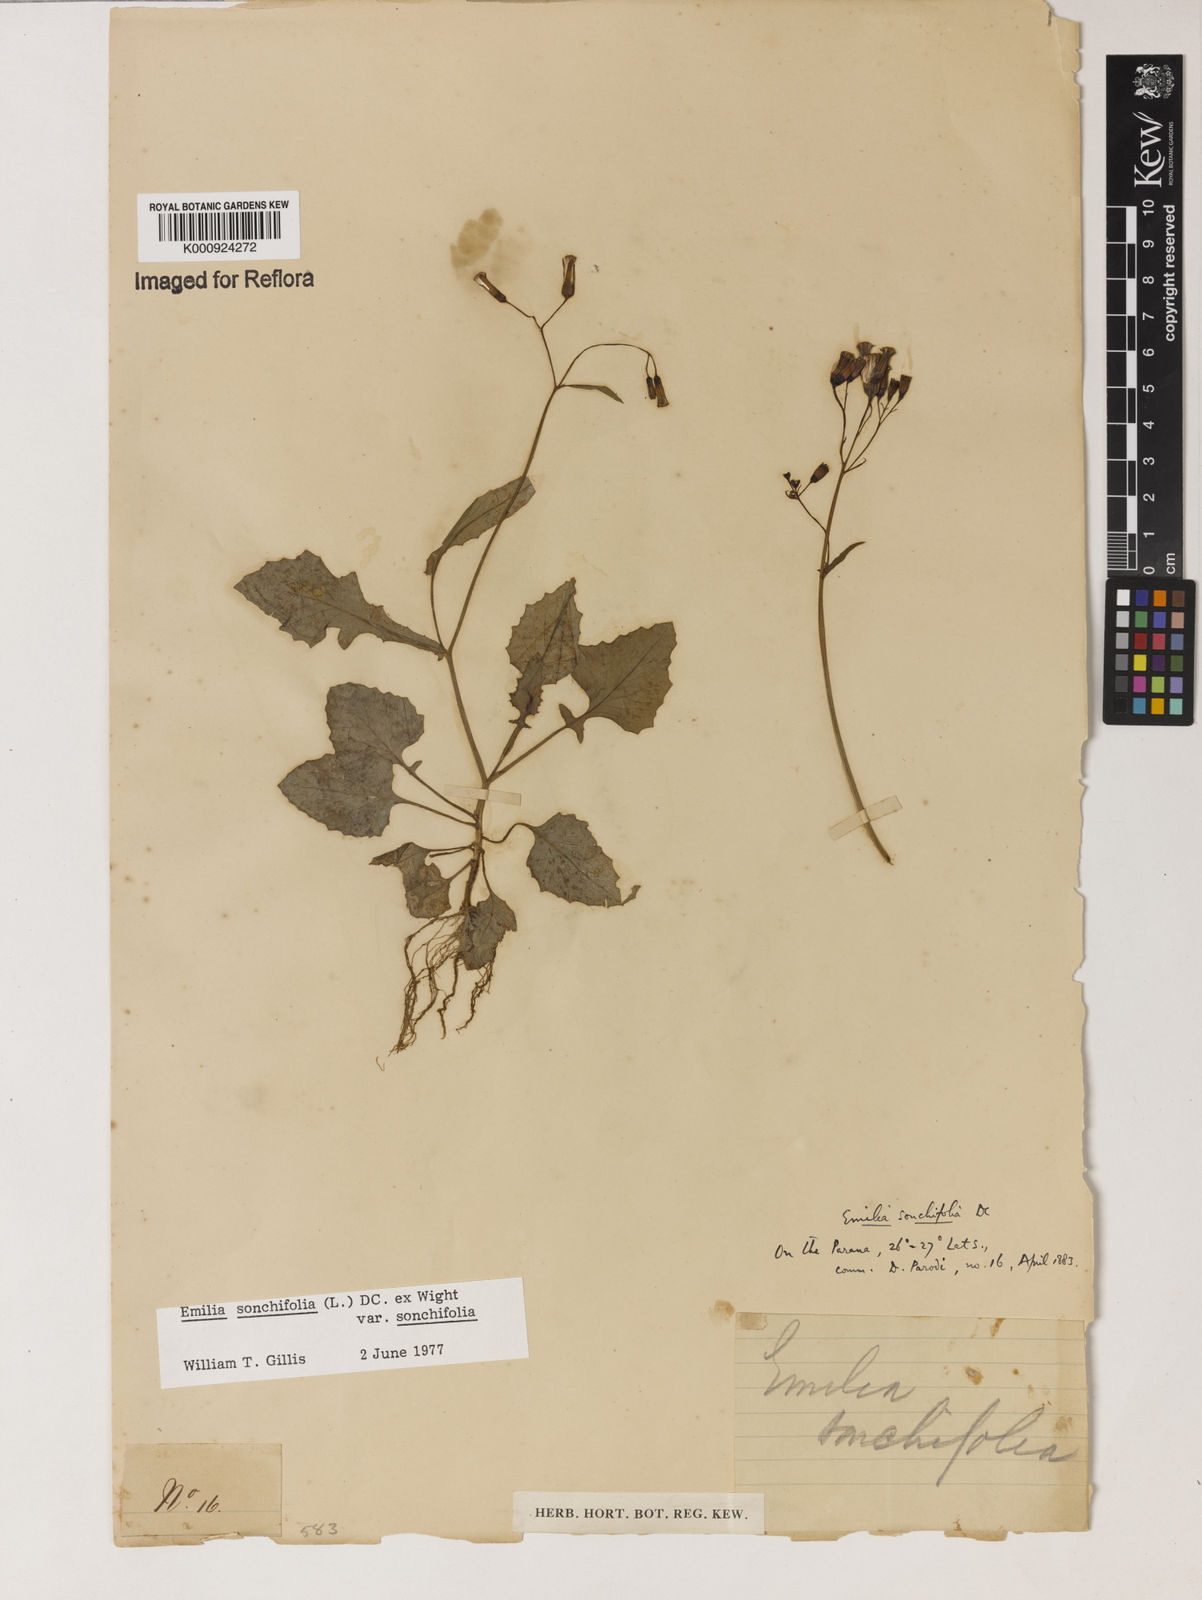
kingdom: Plantae
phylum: Tracheophyta
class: Magnoliopsida
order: Asterales
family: Asteraceae
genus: Emilia
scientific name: Emilia
